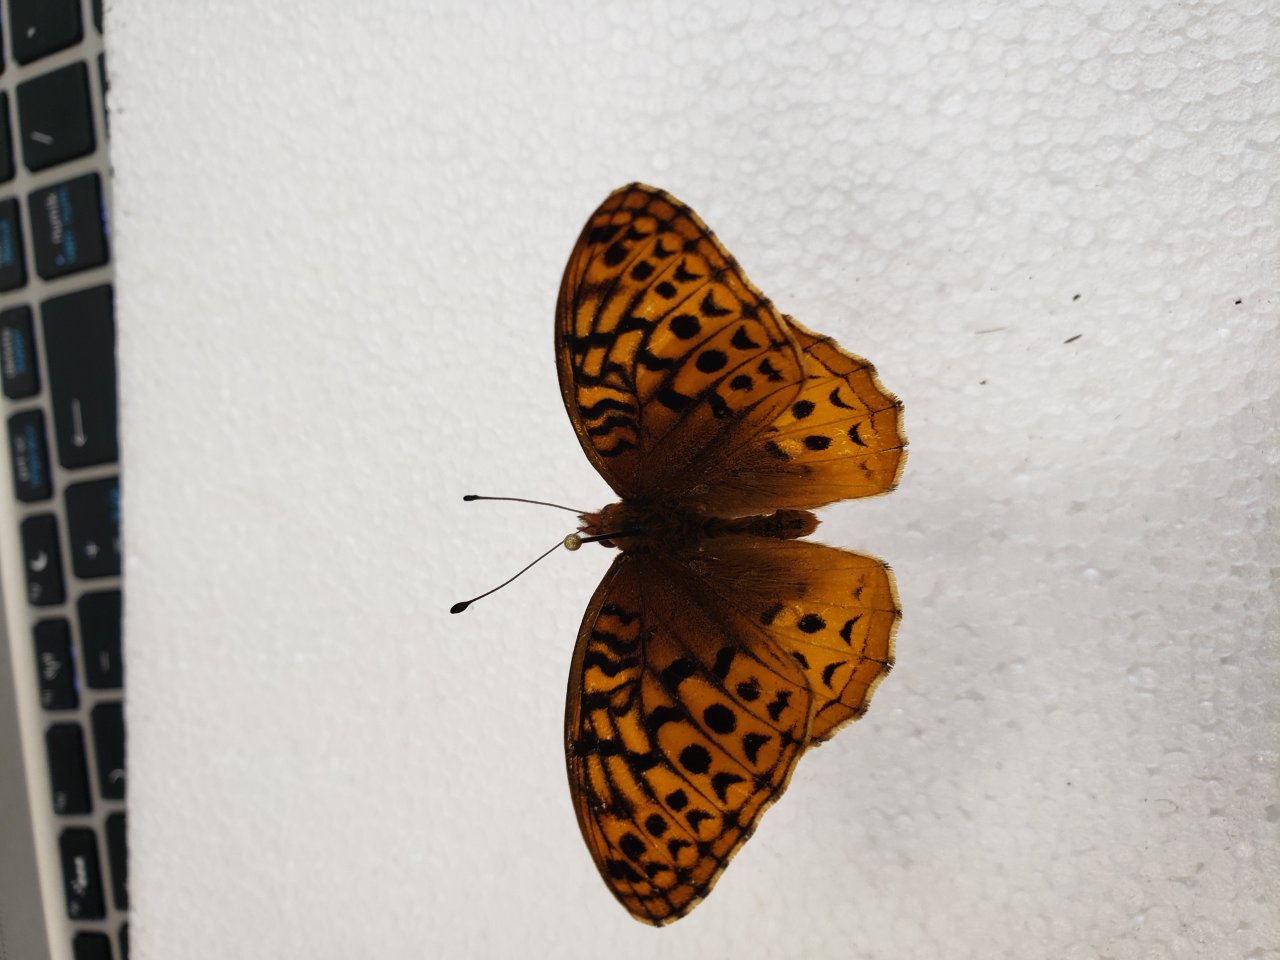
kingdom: Animalia
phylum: Arthropoda
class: Insecta
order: Lepidoptera
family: Nymphalidae
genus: Speyeria
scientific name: Speyeria cybele
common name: Great Spangled Fritillary
